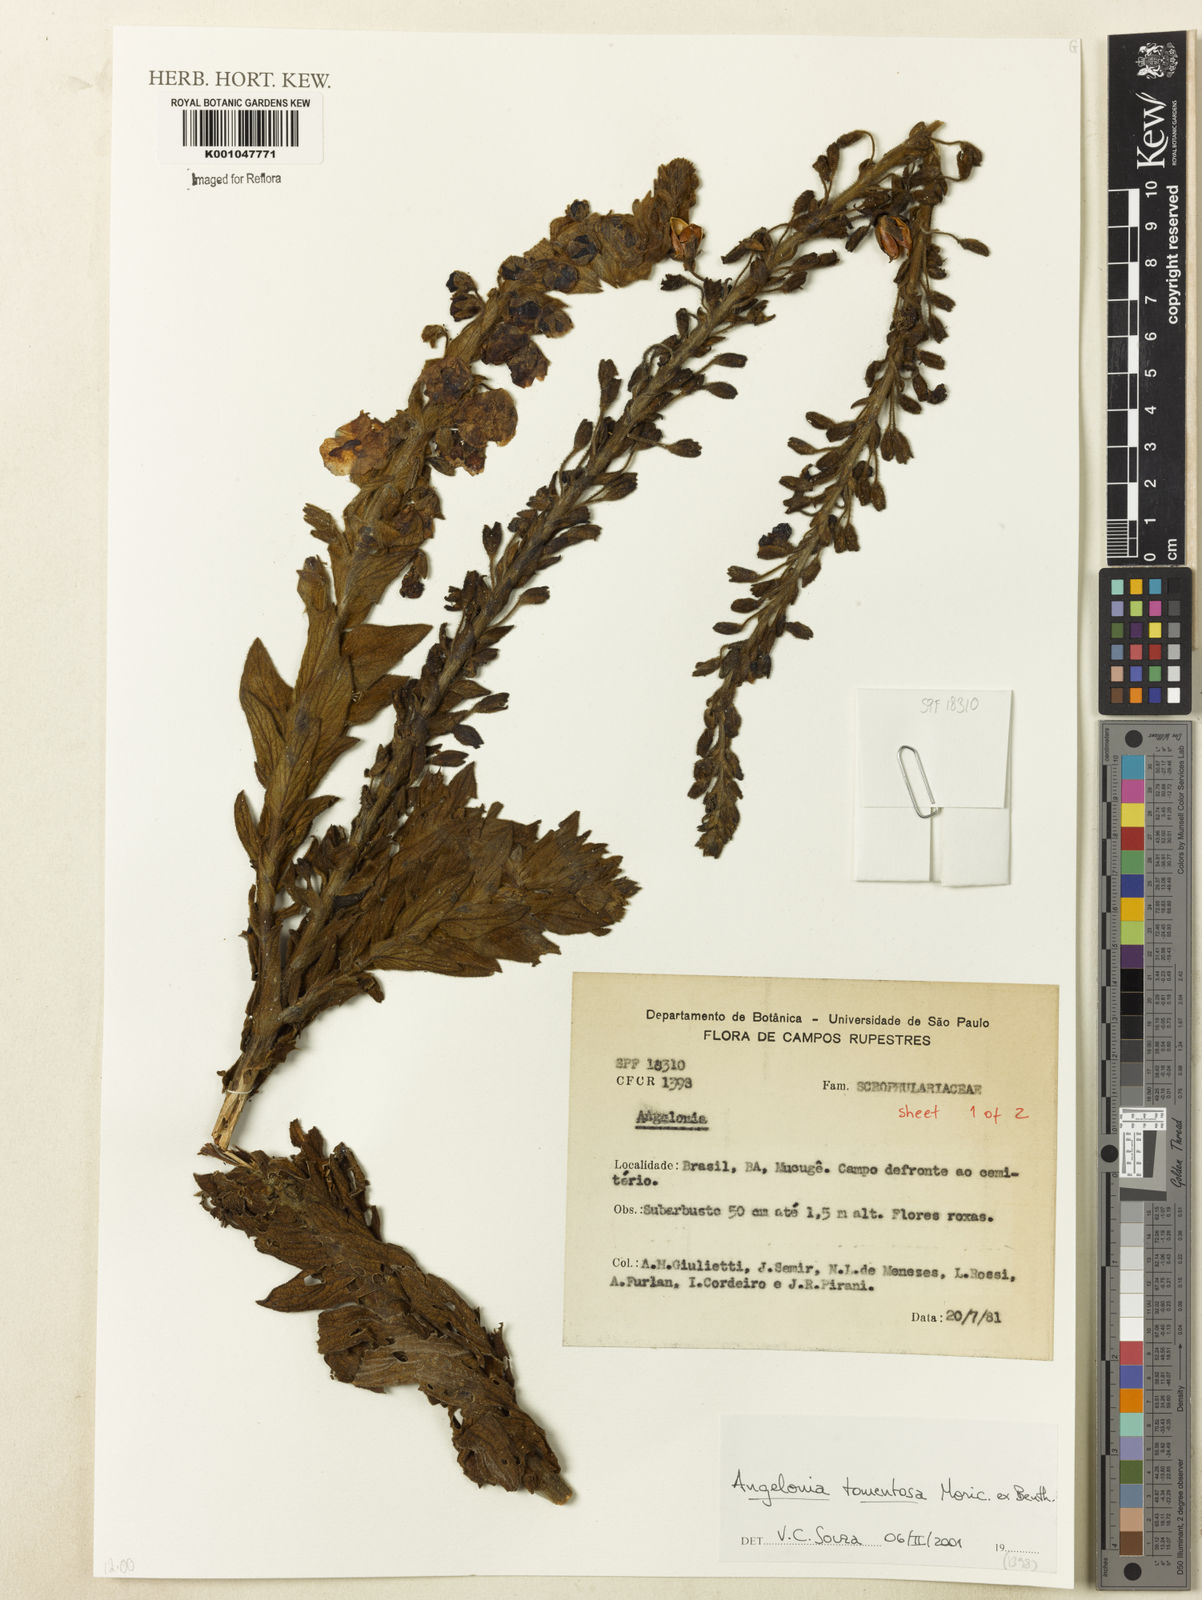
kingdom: Plantae
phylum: Tracheophyta
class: Magnoliopsida
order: Lamiales
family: Plantaginaceae
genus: Angelonia
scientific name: Angelonia tomentosa
